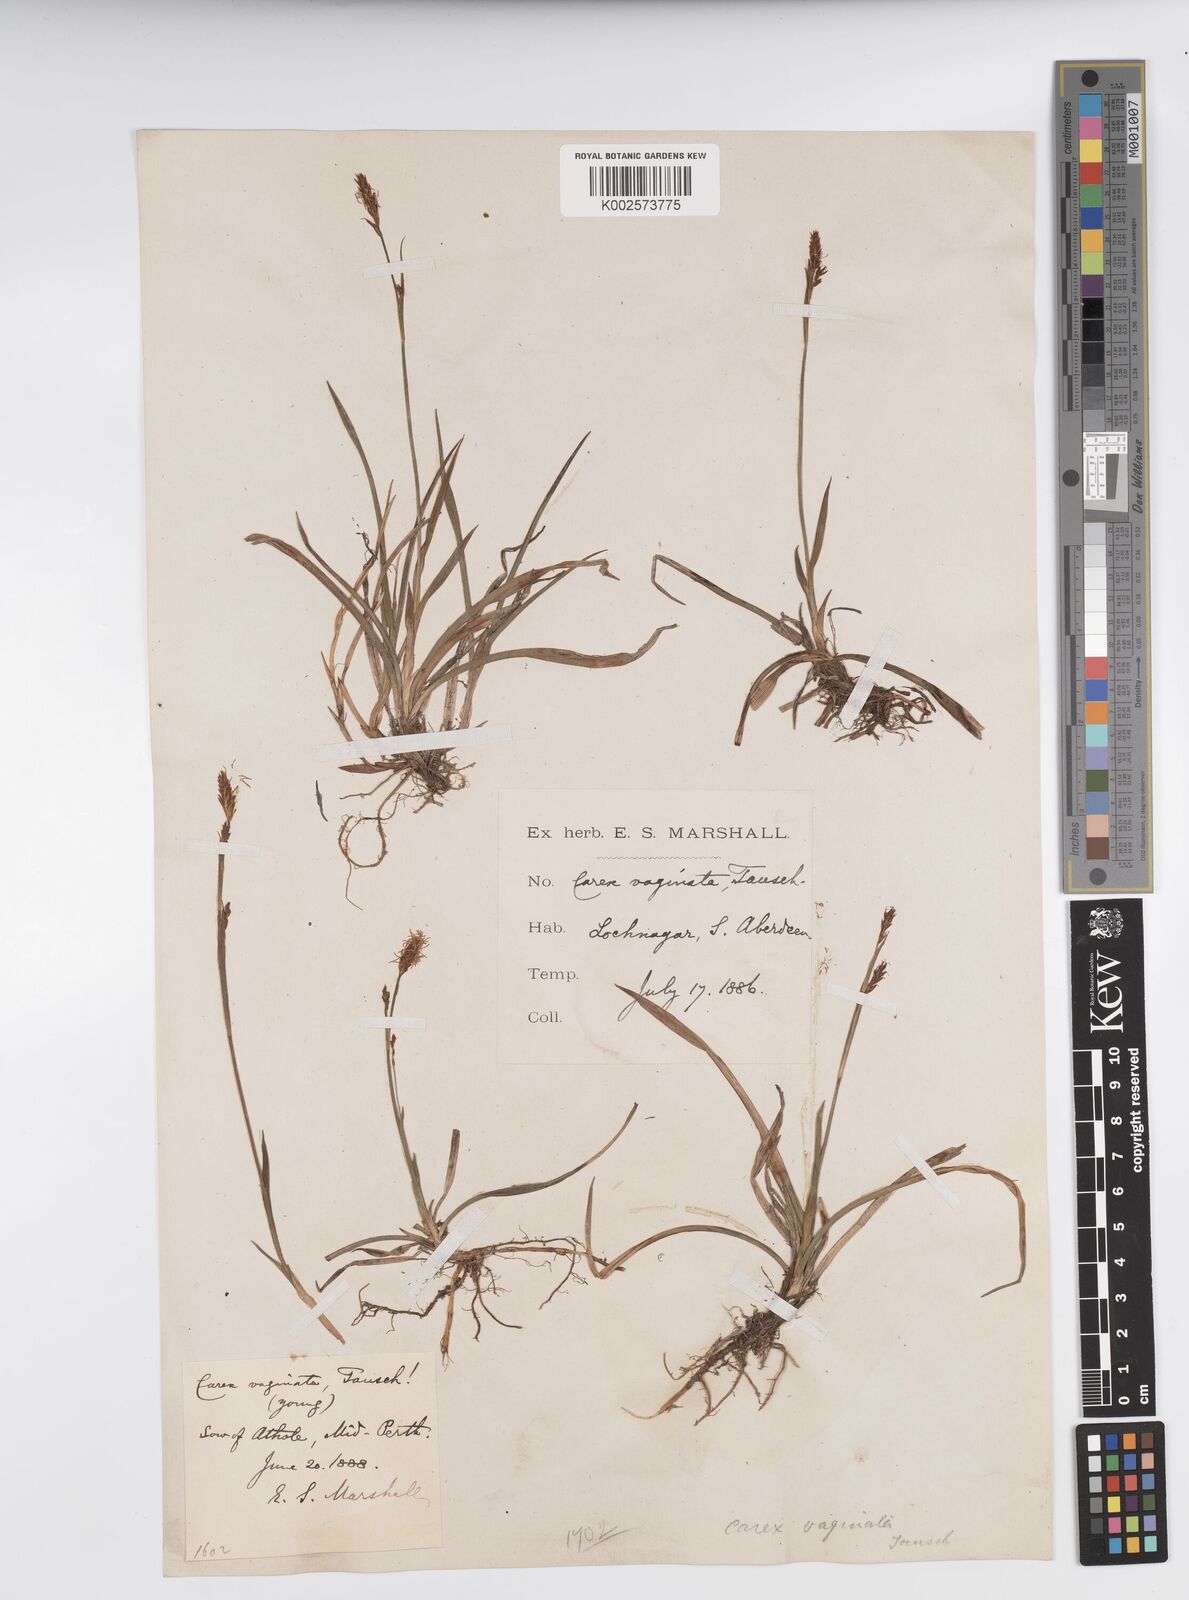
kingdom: Plantae
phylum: Tracheophyta
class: Liliopsida
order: Poales
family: Cyperaceae
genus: Carex
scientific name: Carex vaginata
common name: Sheathed sedge
